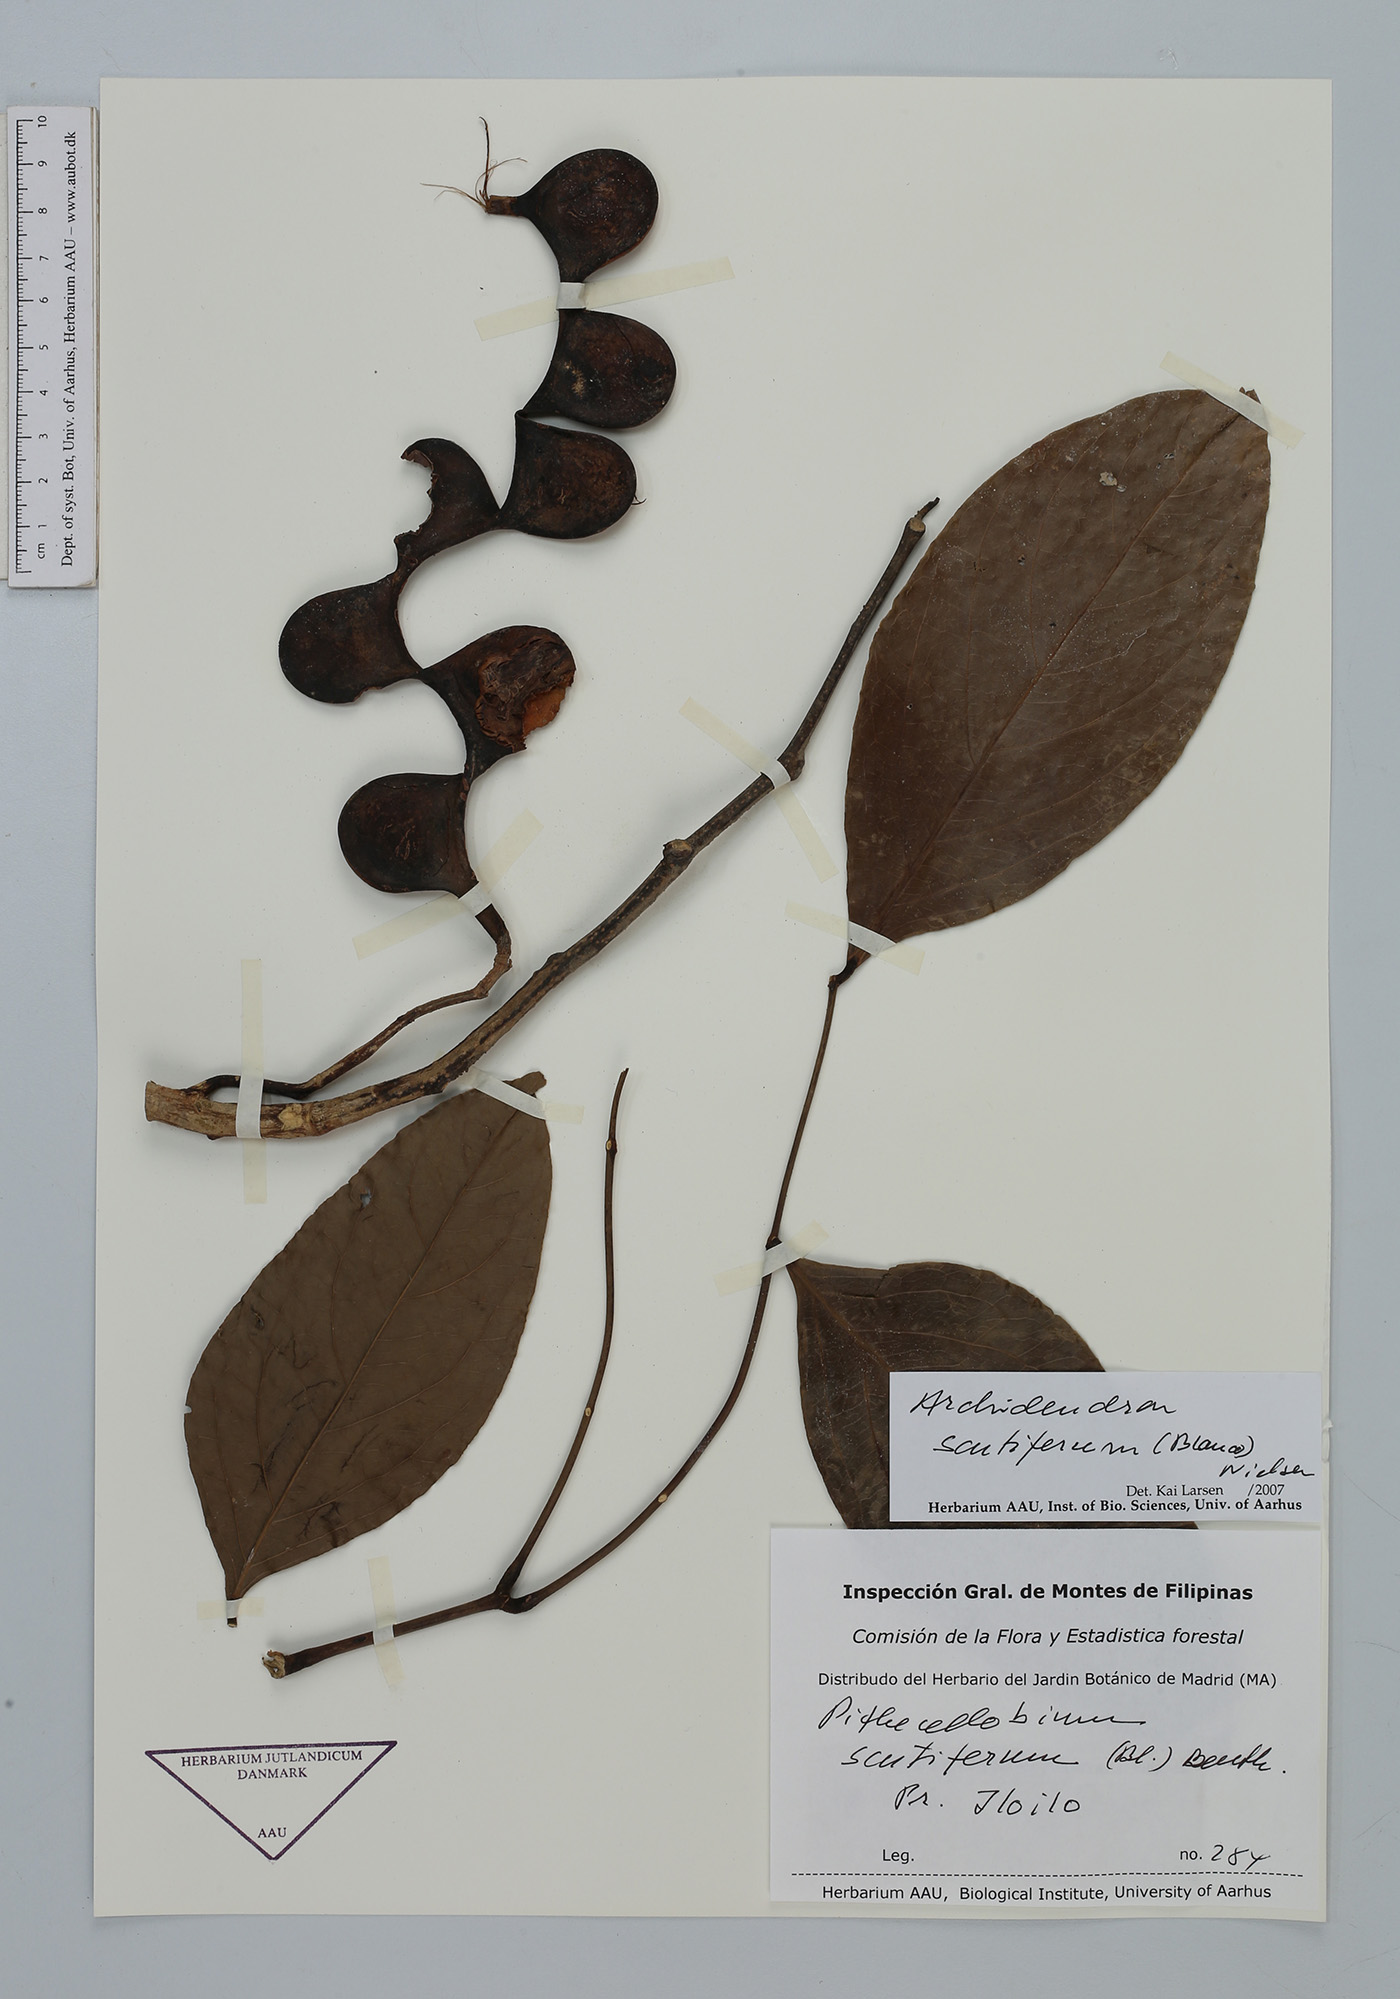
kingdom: Plantae
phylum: Tracheophyta
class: Magnoliopsida
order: Fabales
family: Fabaceae
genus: Archidendron
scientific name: Archidendron scutiferum
